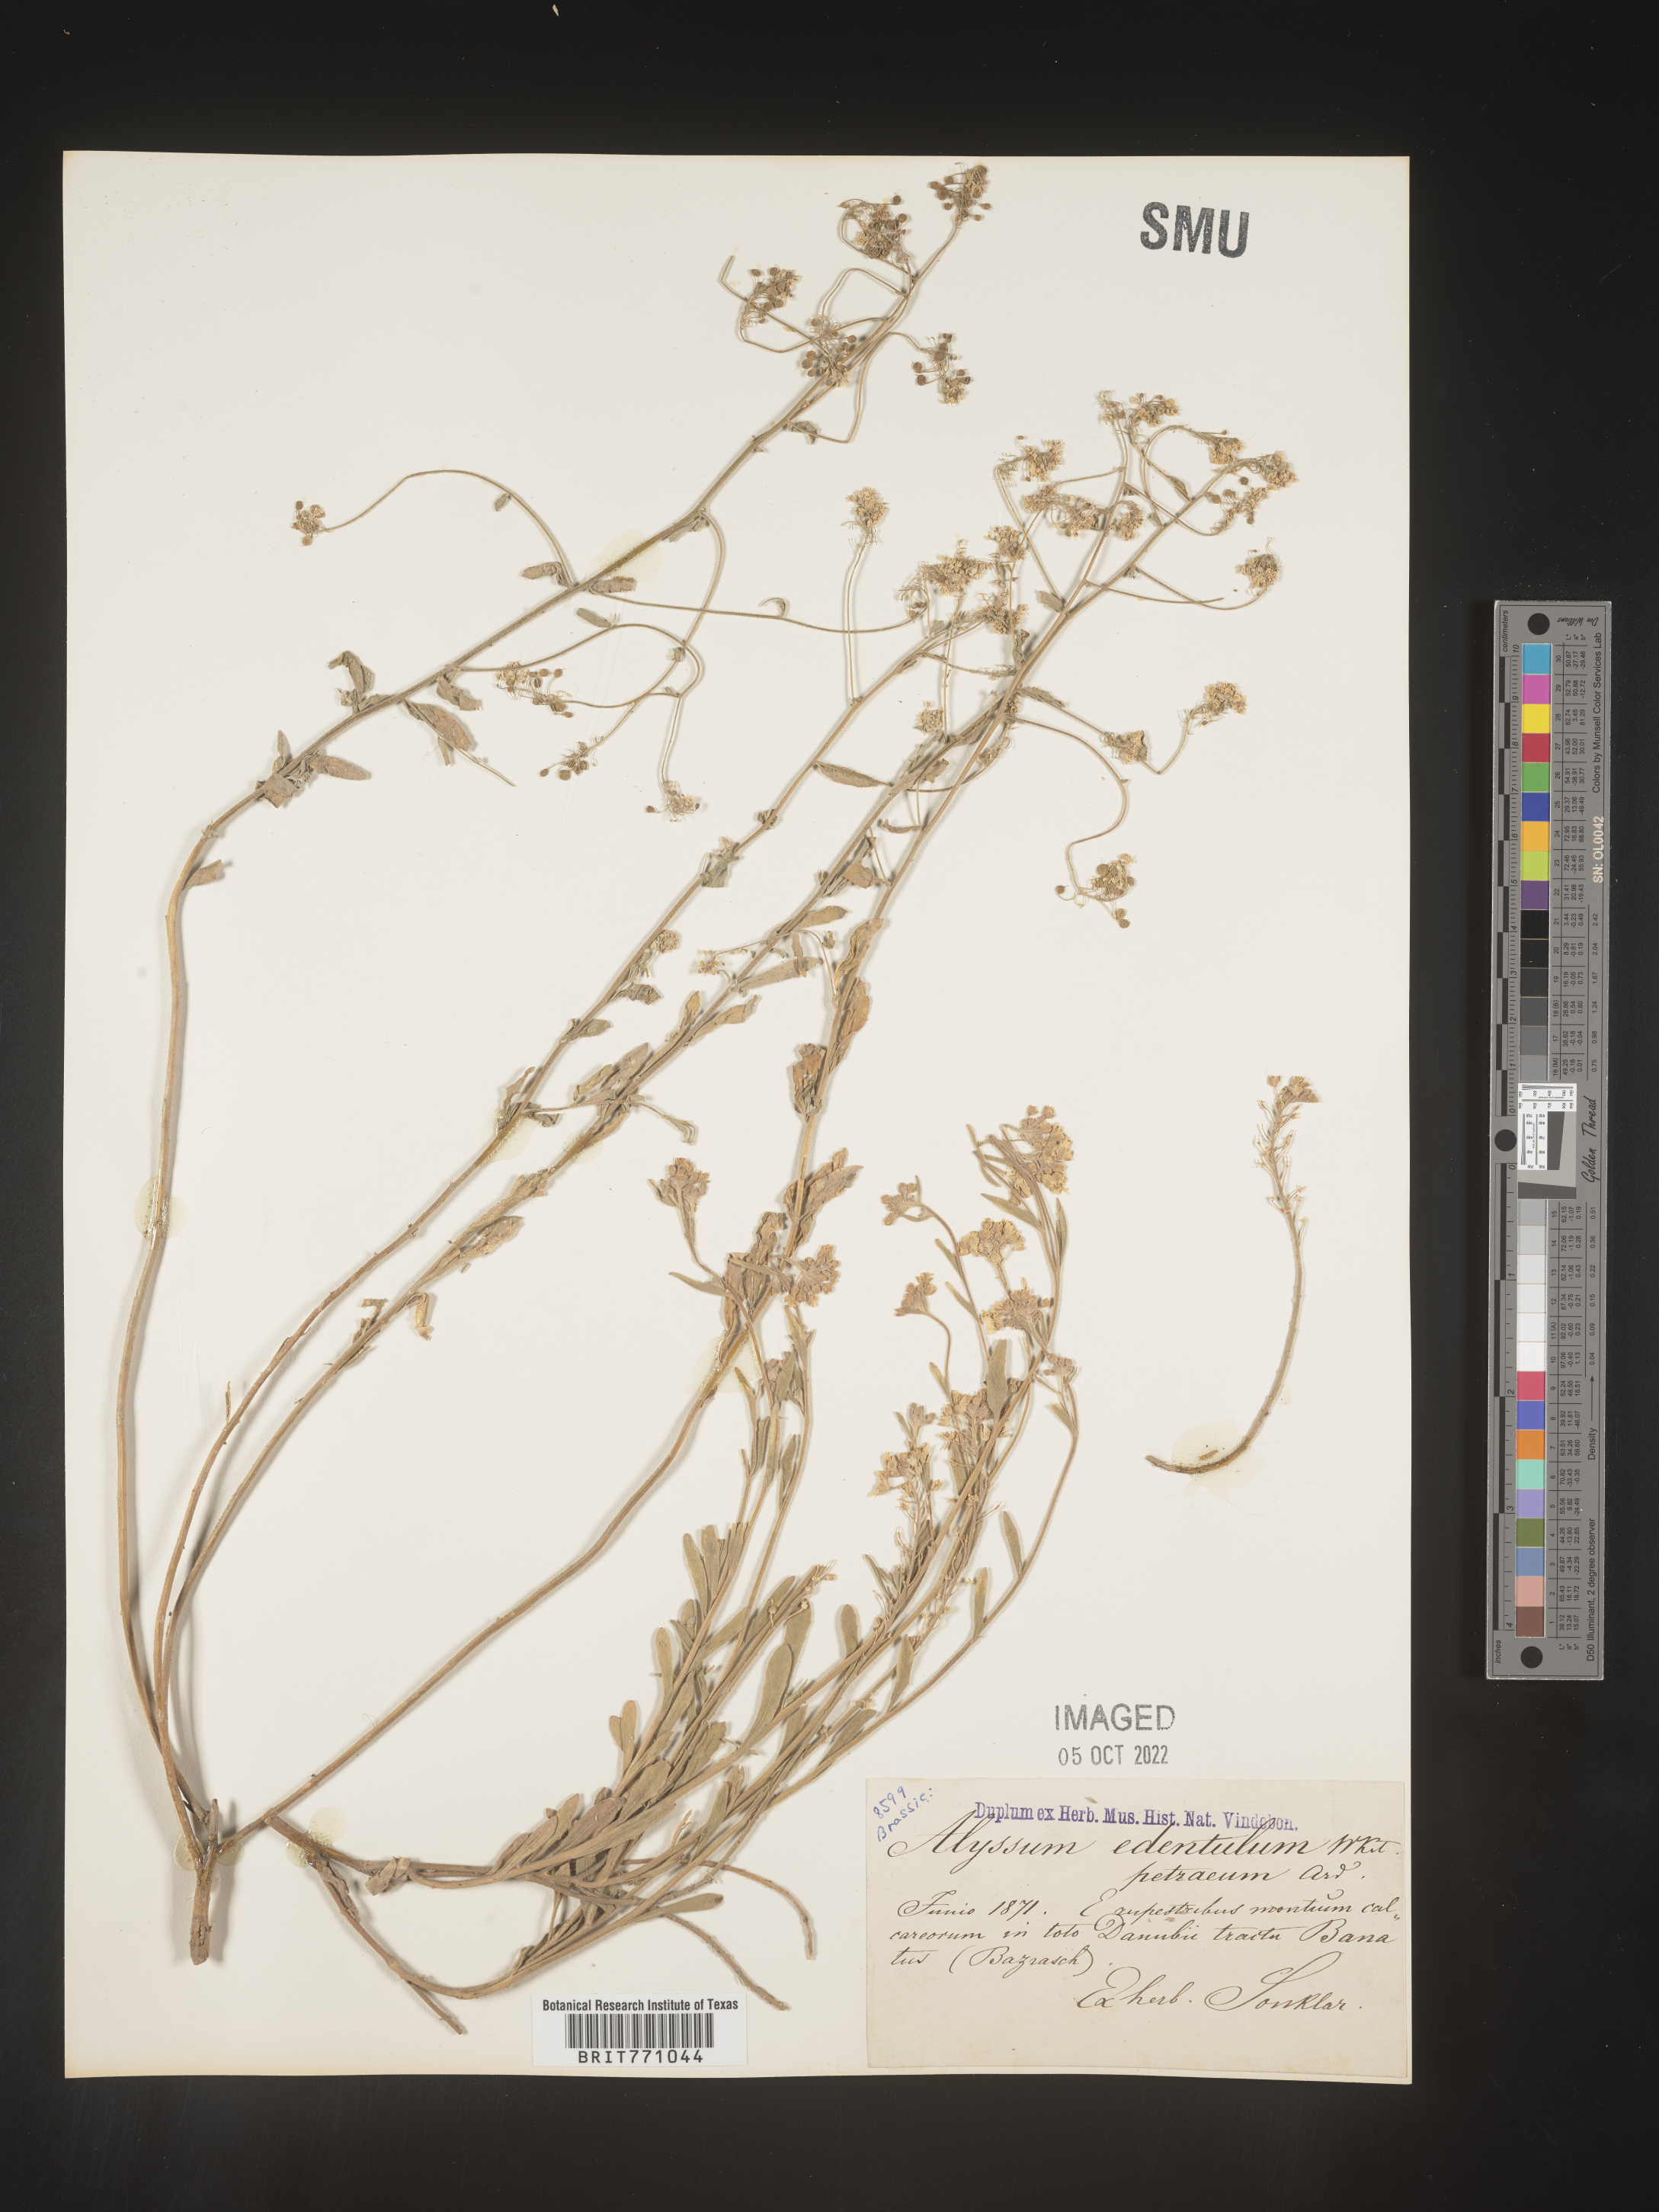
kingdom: Plantae
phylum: Tracheophyta
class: Magnoliopsida
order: Brassicales
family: Brassicaceae
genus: Alyssum
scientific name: Alyssum
